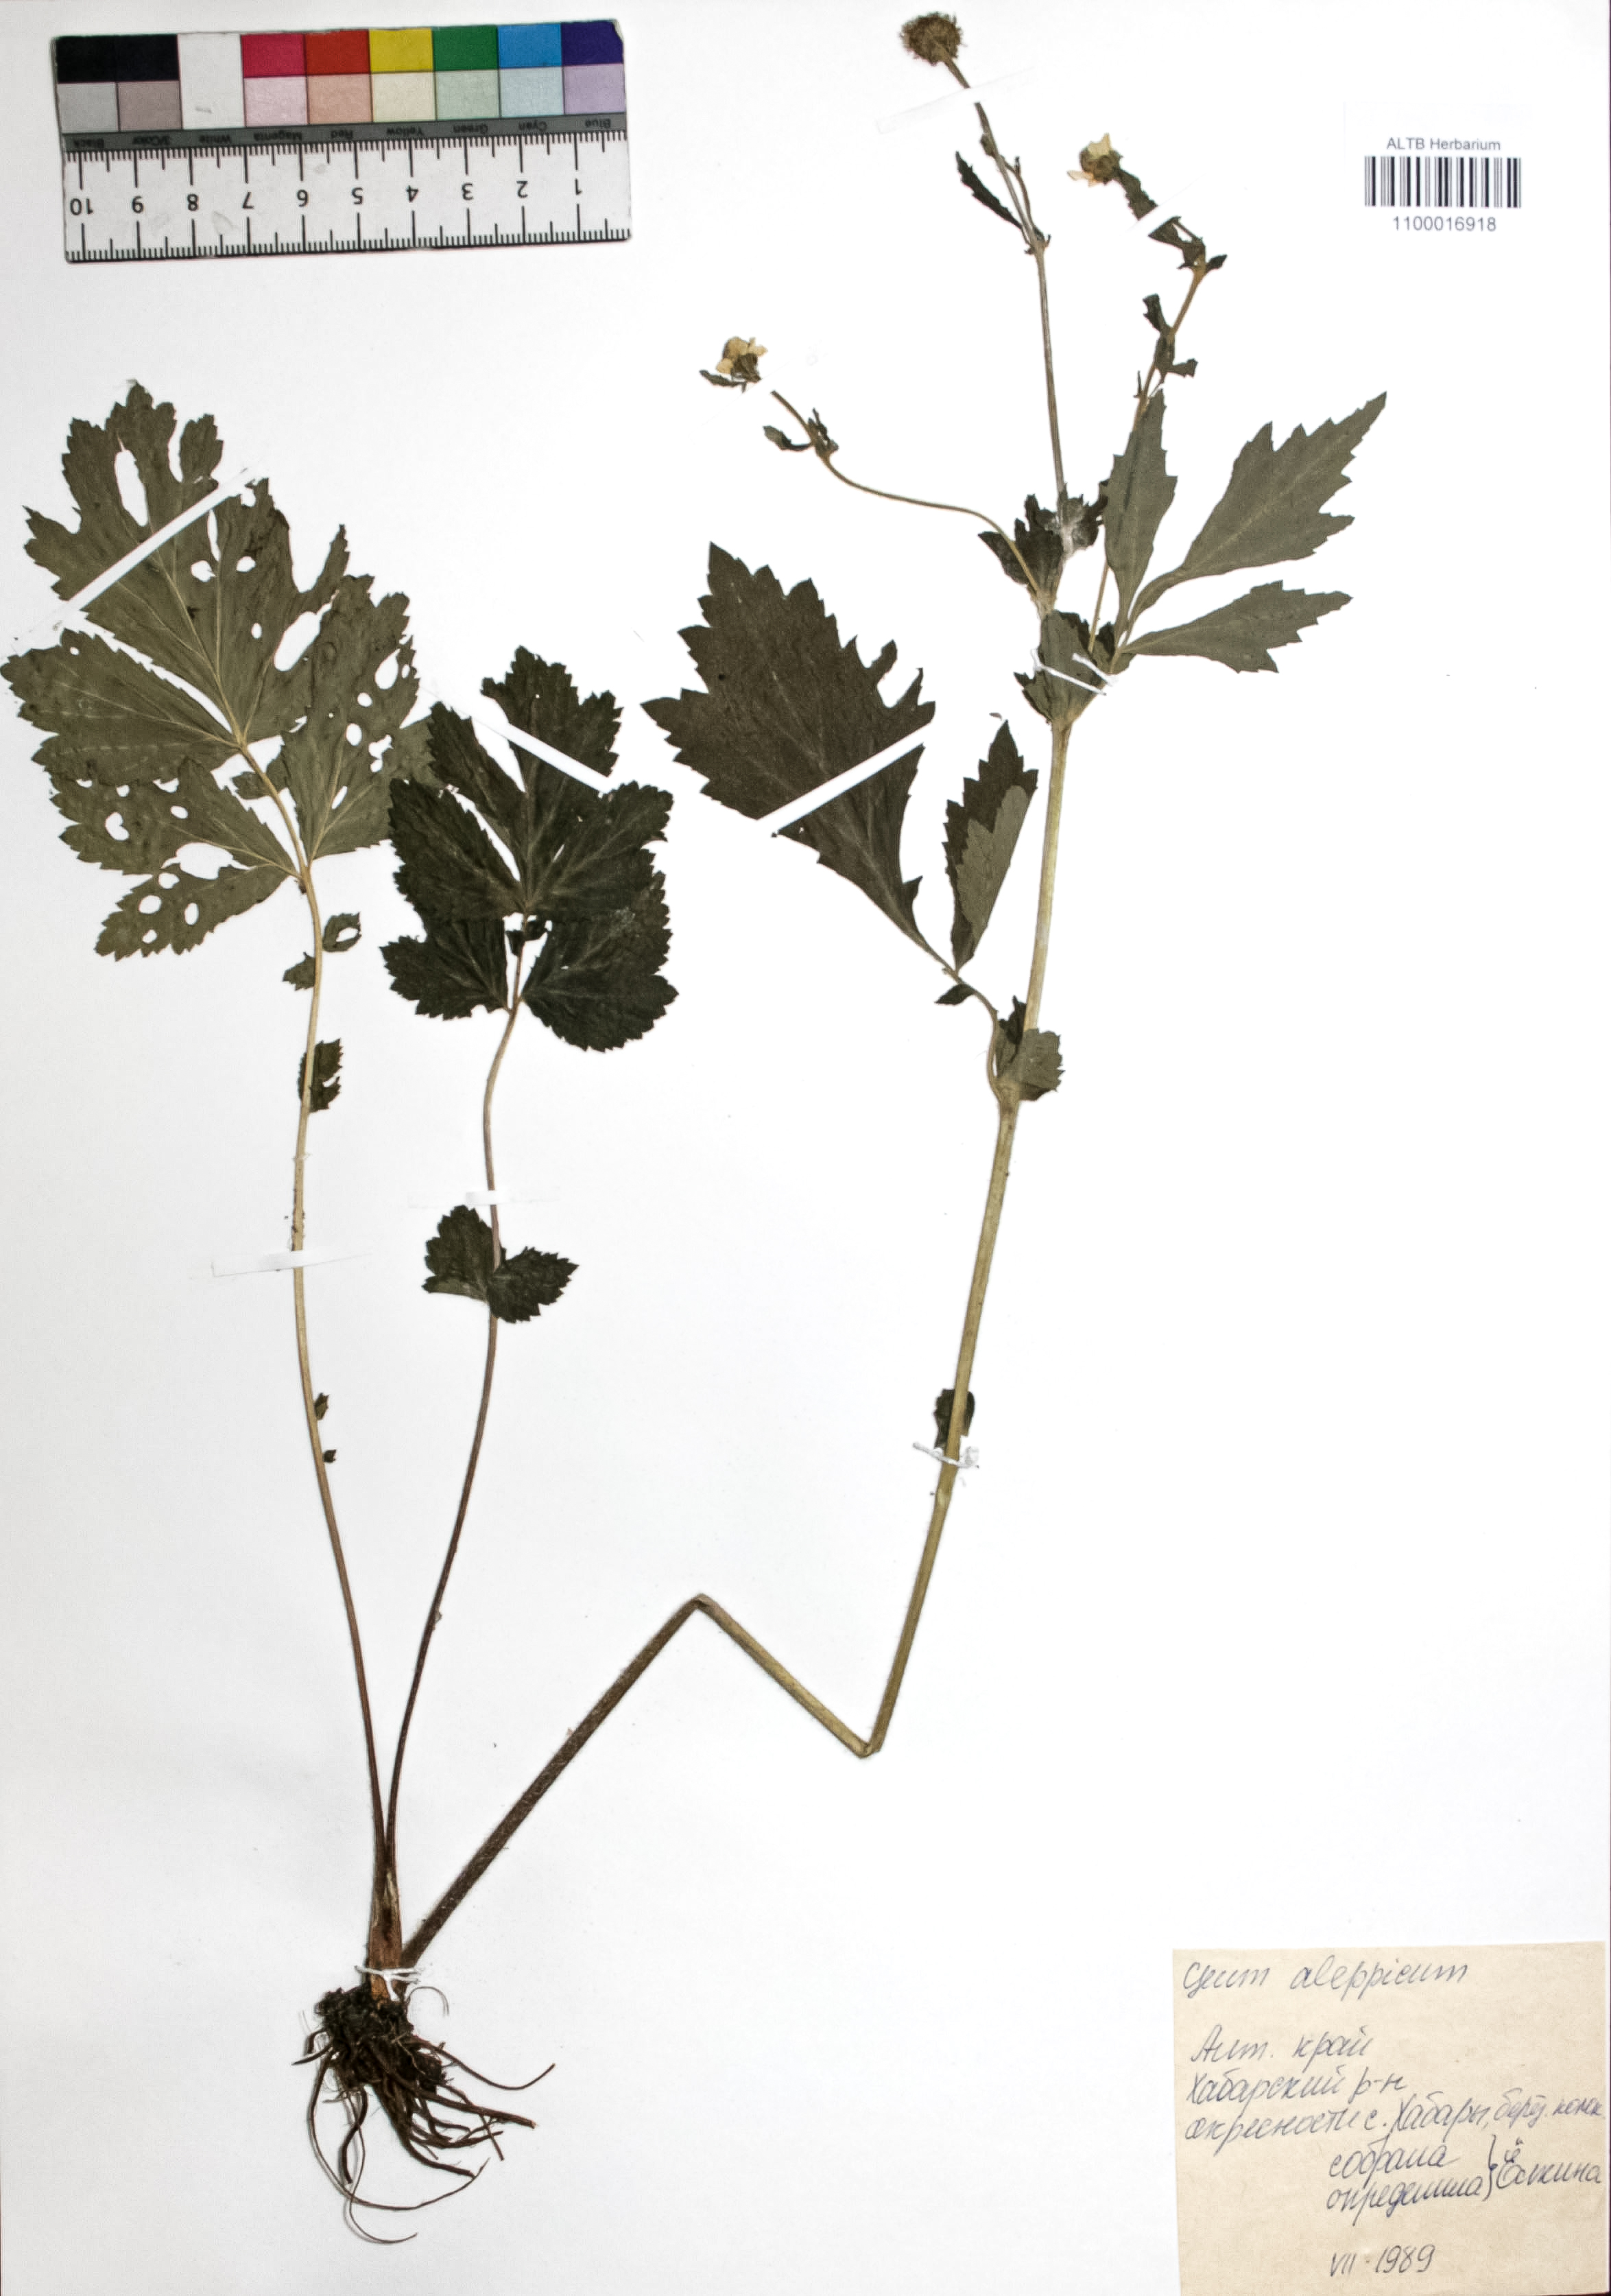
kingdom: Plantae
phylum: Tracheophyta
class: Magnoliopsida
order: Rosales
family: Rosaceae
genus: Geum
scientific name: Geum aleppicum
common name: Yellow avens
